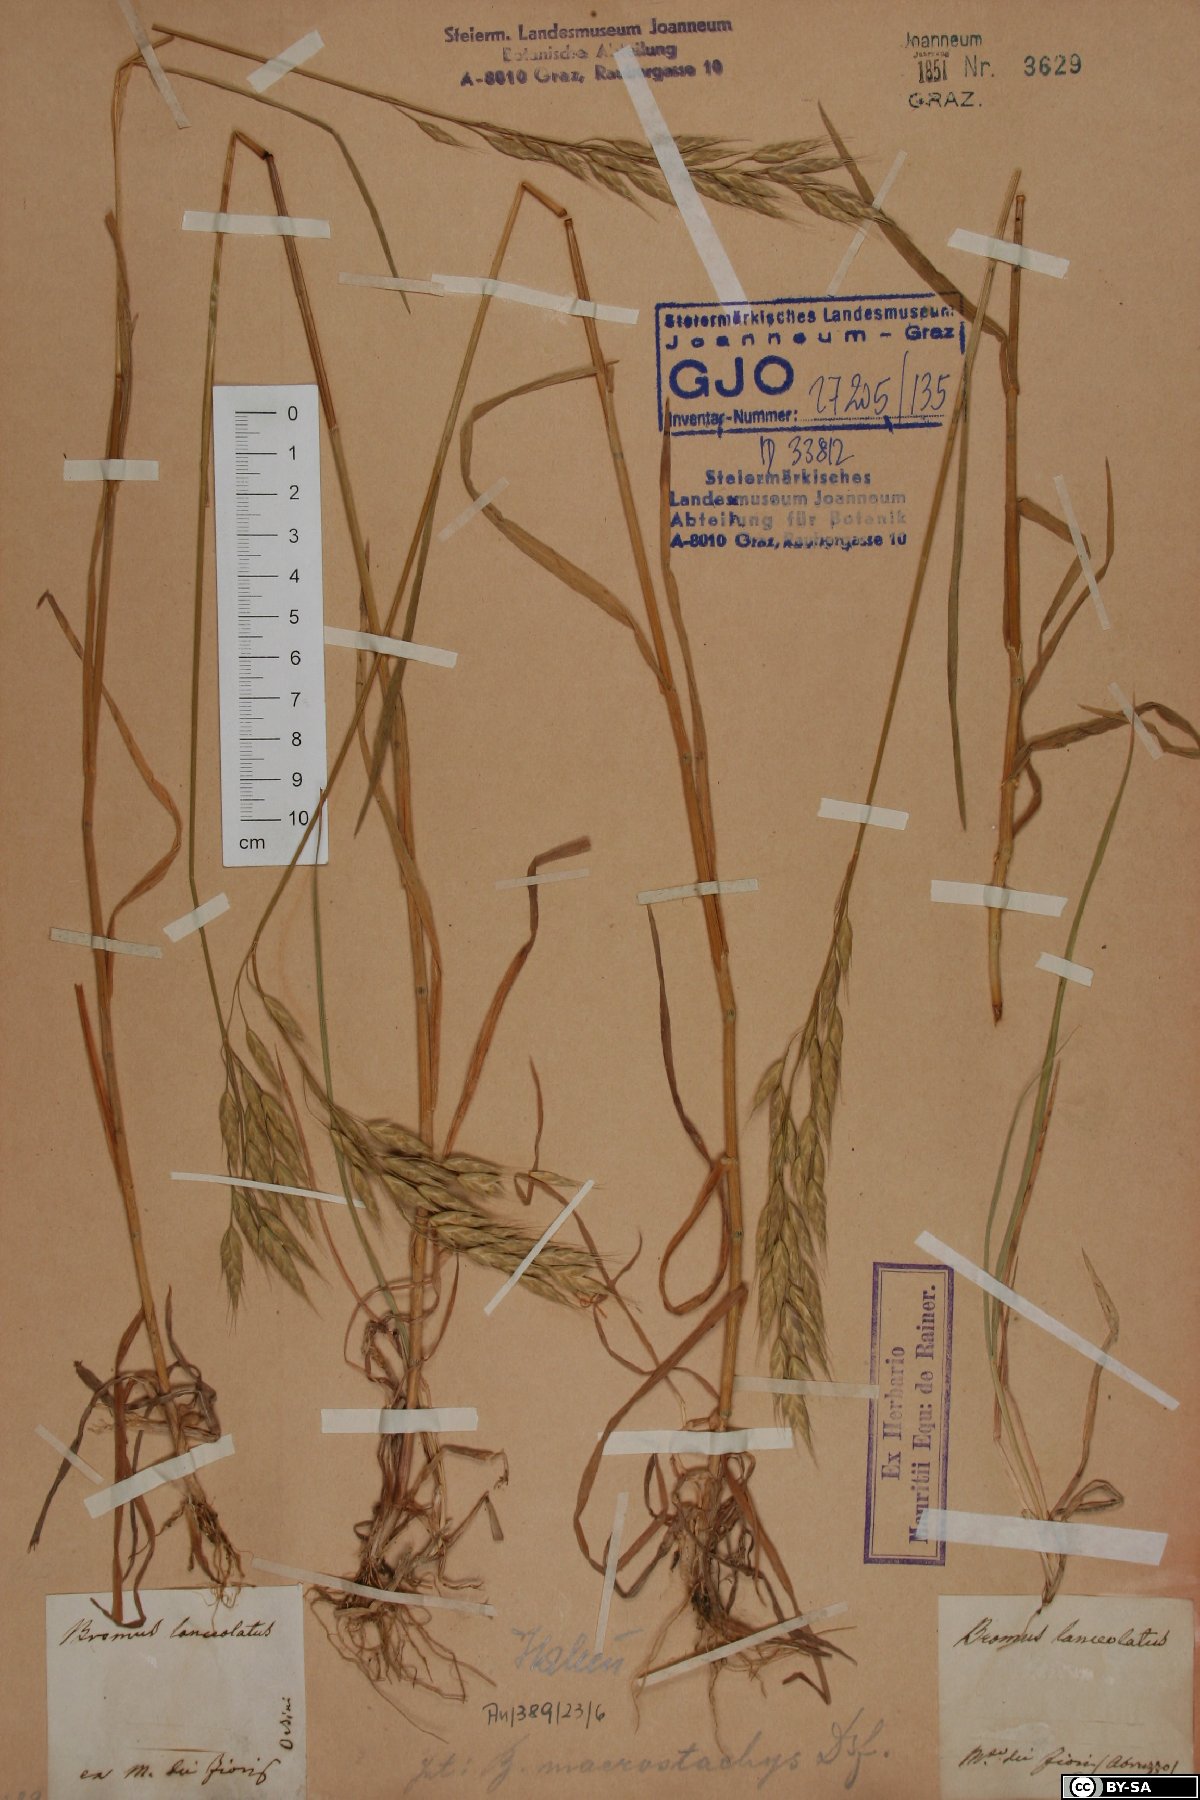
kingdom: Plantae
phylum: Tracheophyta
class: Liliopsida
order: Poales
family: Poaceae
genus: Bromus
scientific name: Bromus lanceolatus
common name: Mediterranean brome
